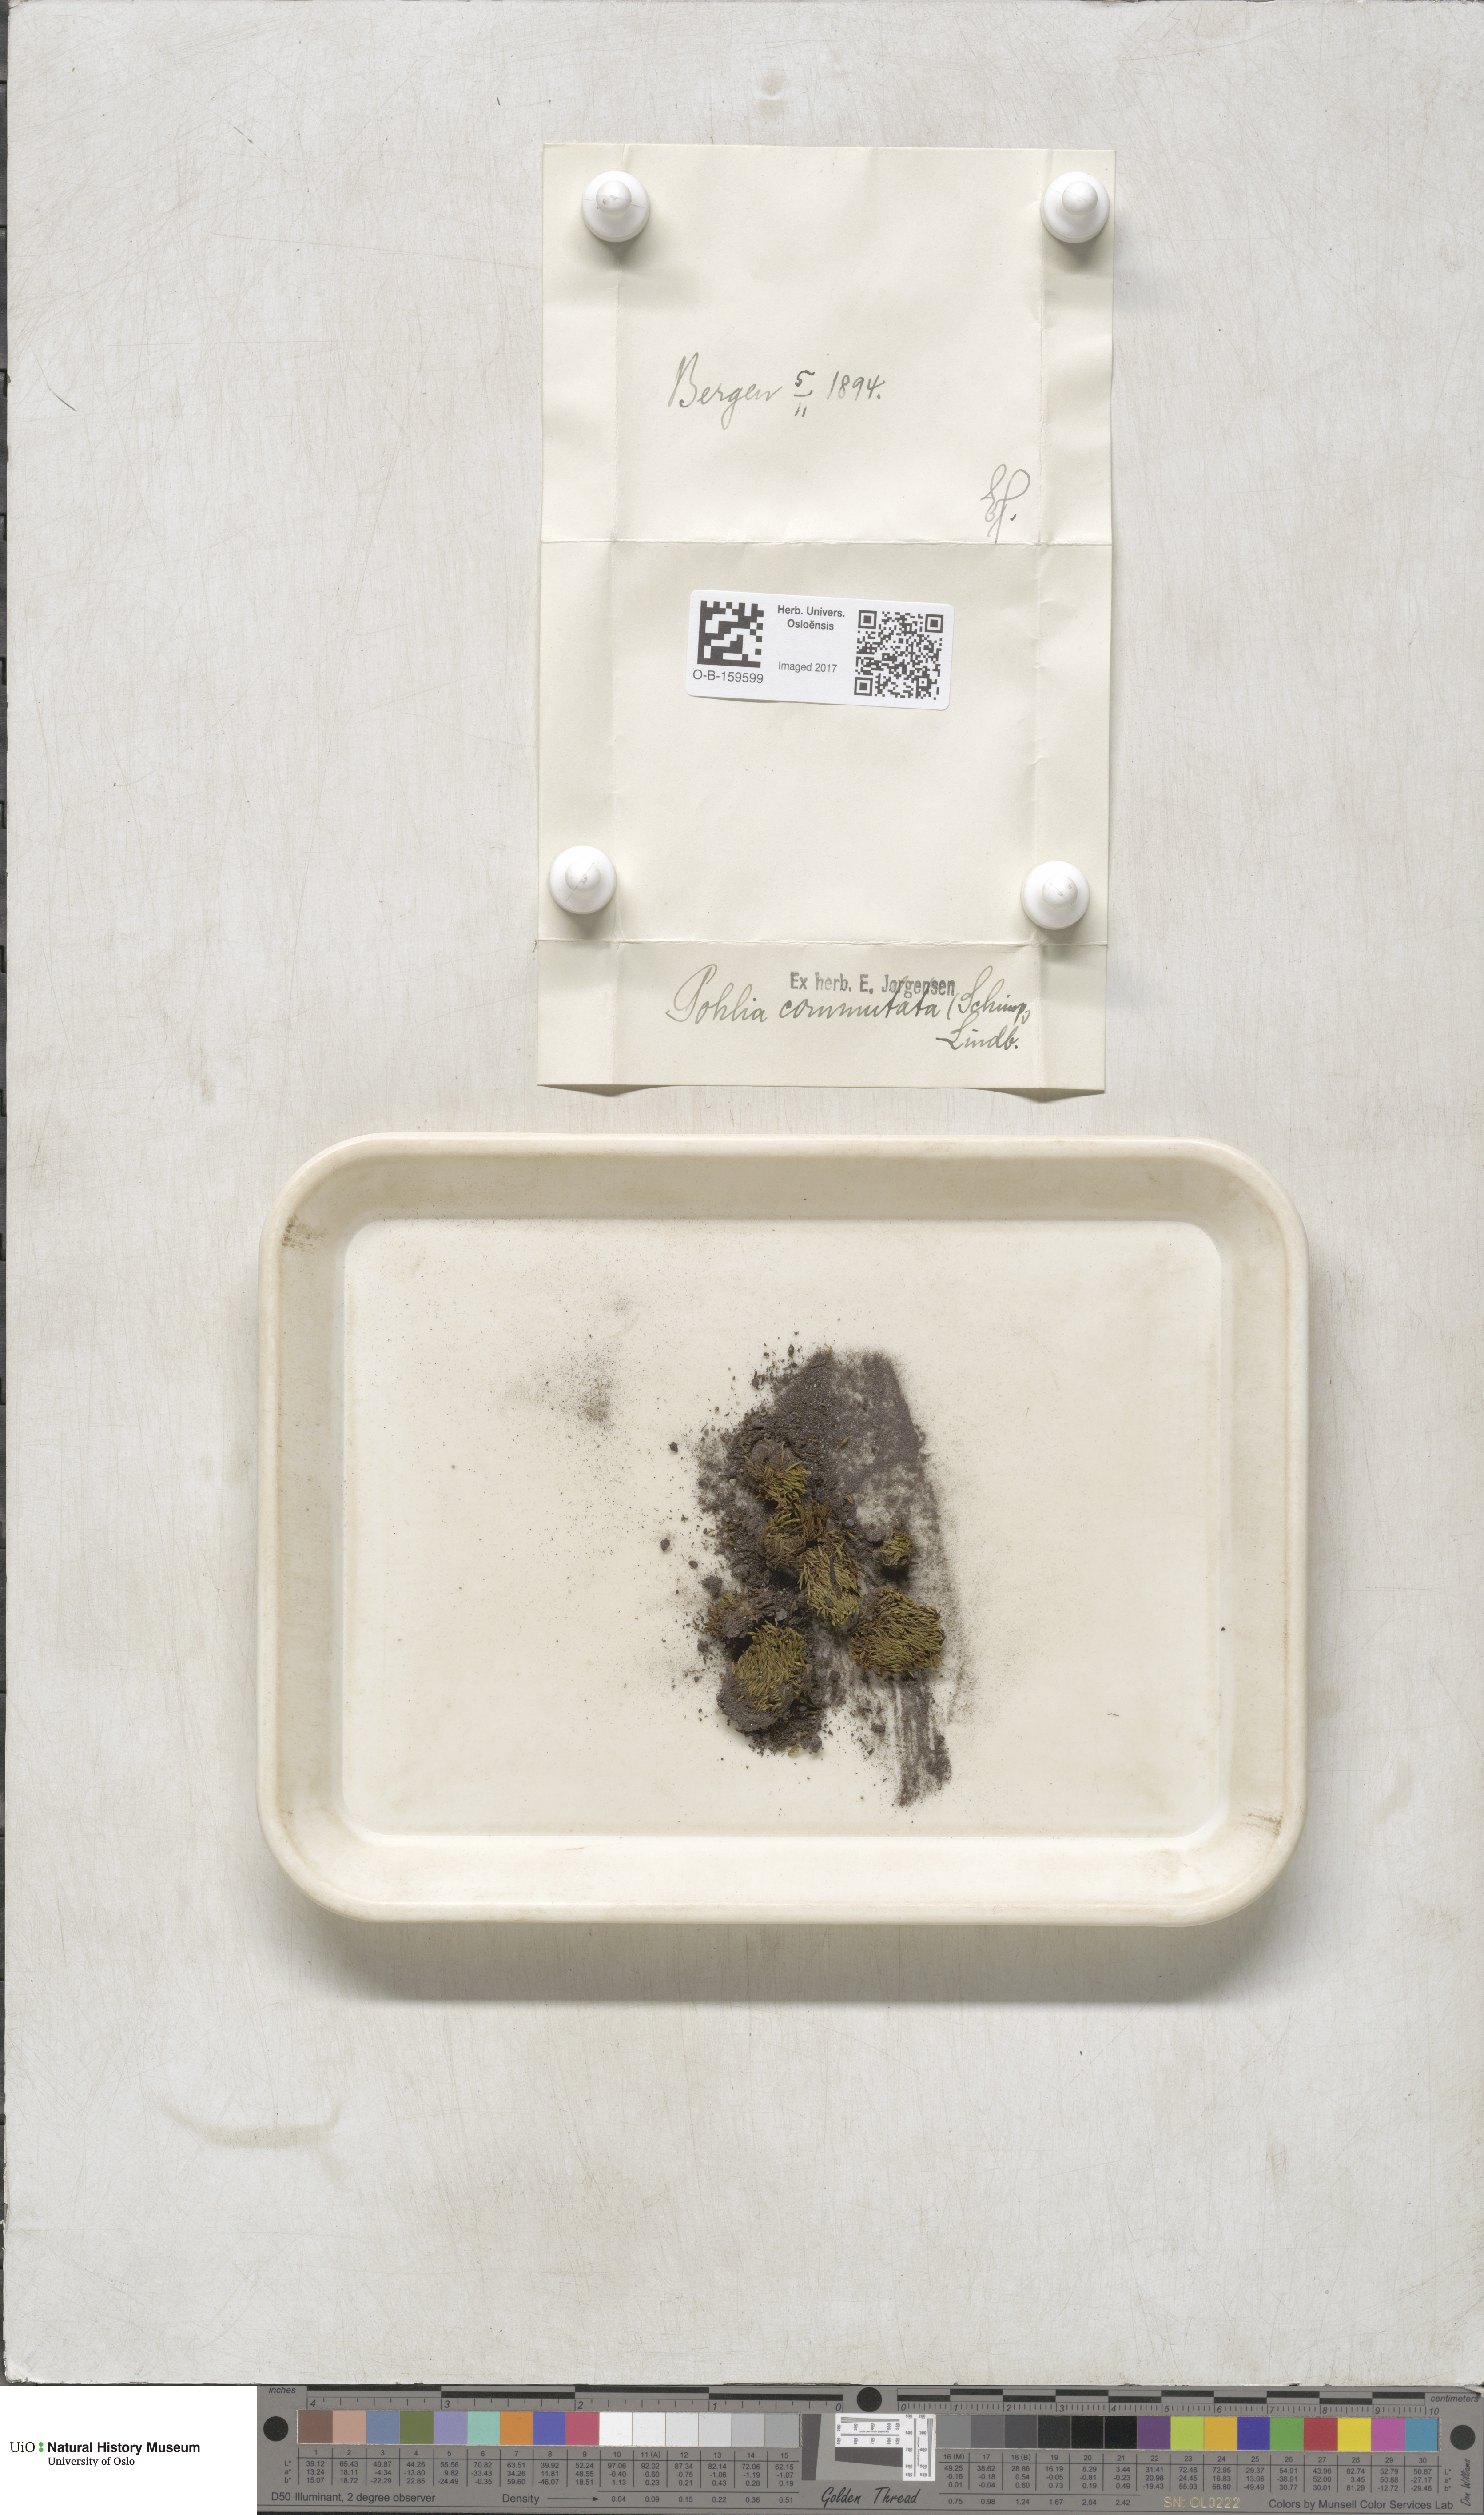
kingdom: Plantae
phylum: Bryophyta
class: Bryopsida
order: Bryales
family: Mniaceae
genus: Pohlia
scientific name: Pohlia drummondii
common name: Drummond's nodding moss
